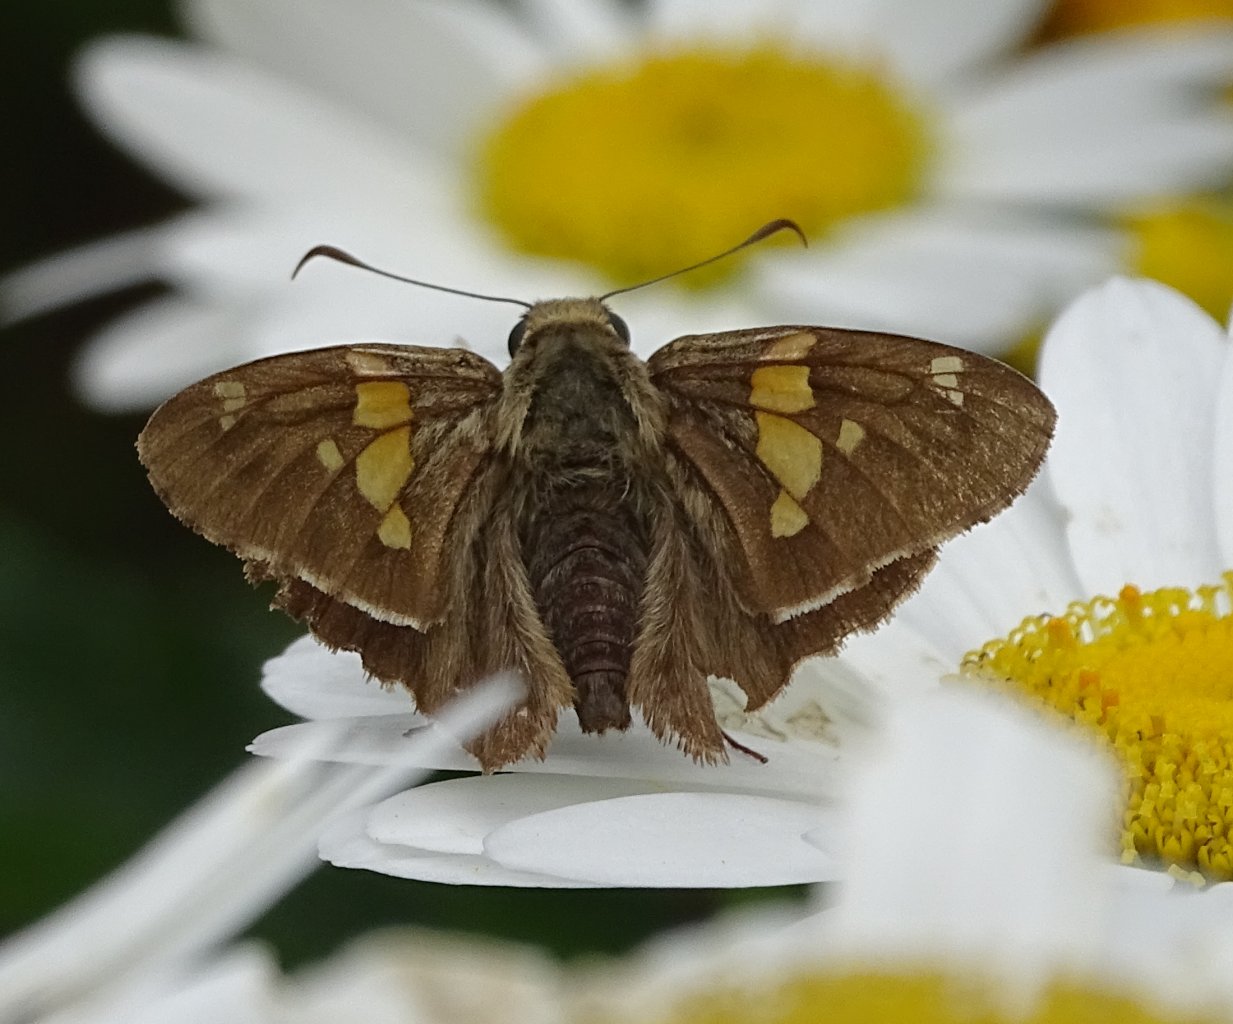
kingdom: Animalia
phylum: Arthropoda
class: Insecta
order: Lepidoptera
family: Hesperiidae
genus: Epargyreus
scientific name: Epargyreus clarus
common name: Silver-spotted Skipper
